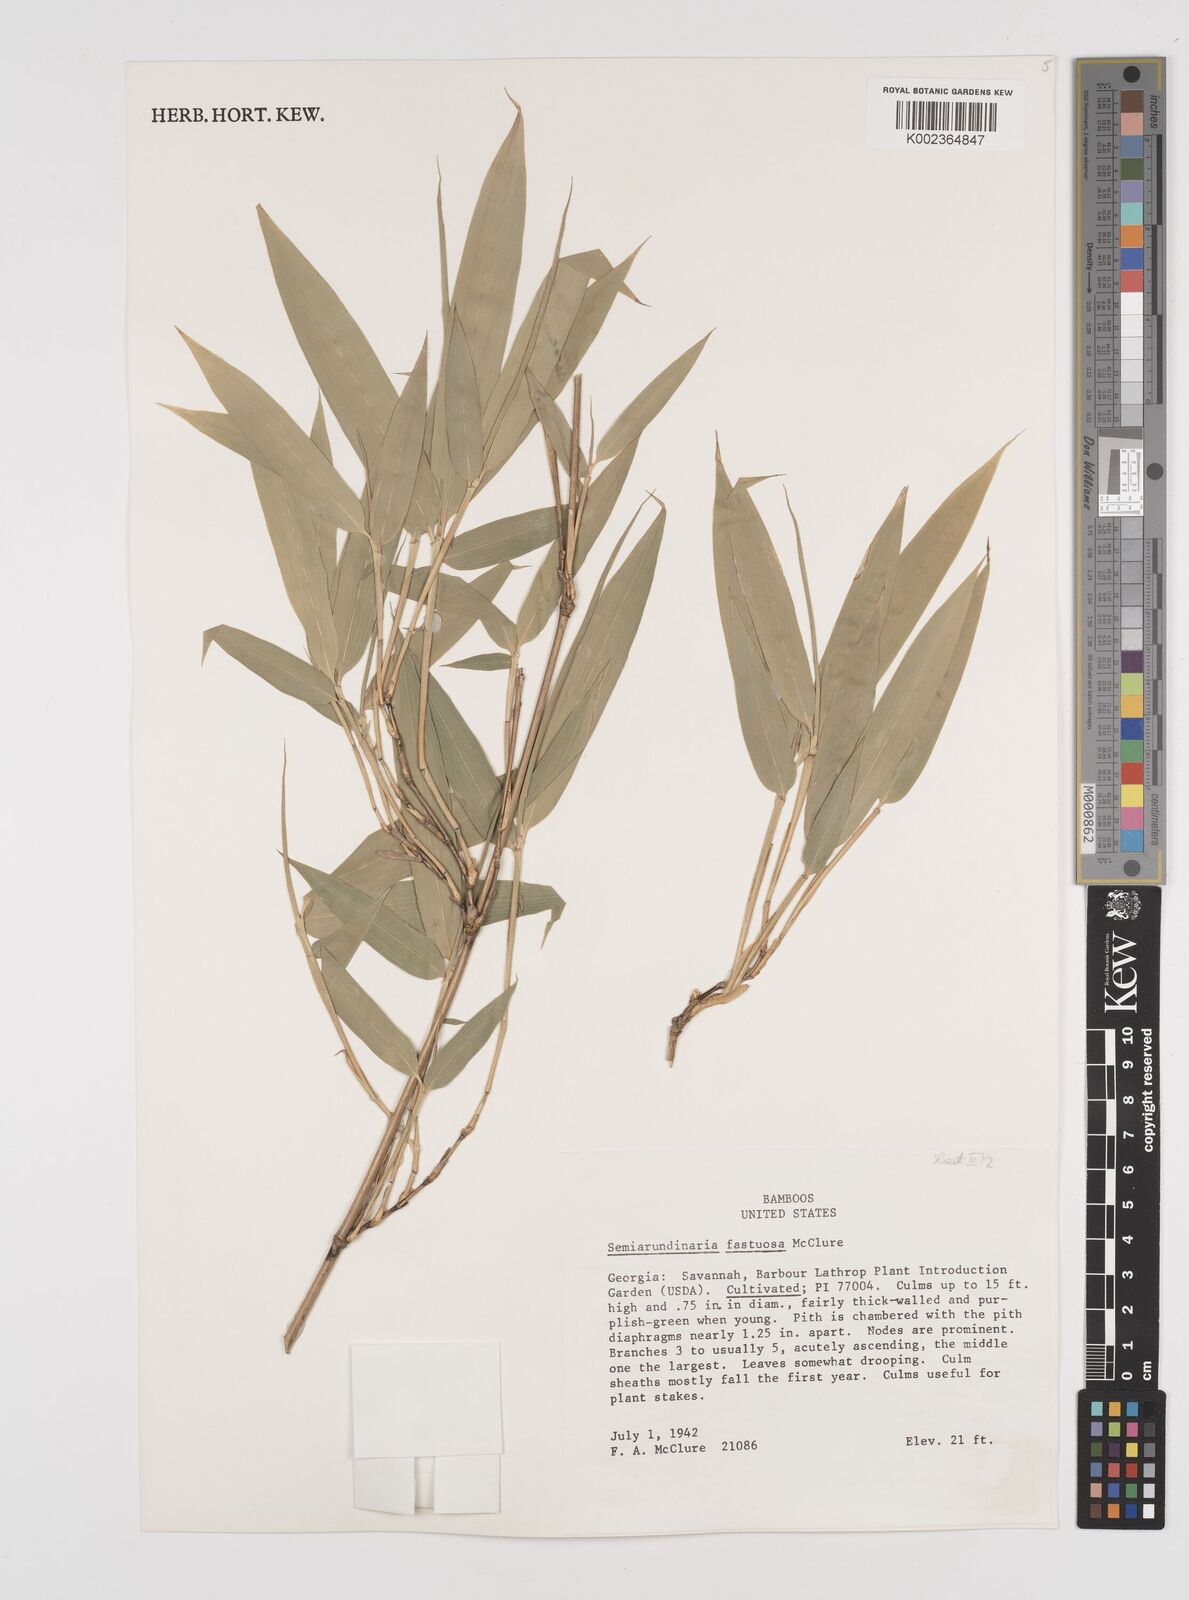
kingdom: Plantae
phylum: Tracheophyta
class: Liliopsida
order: Poales
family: Poaceae
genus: Semiarundinaria
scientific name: Semiarundinaria fastuosa
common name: Narihira bamboo
